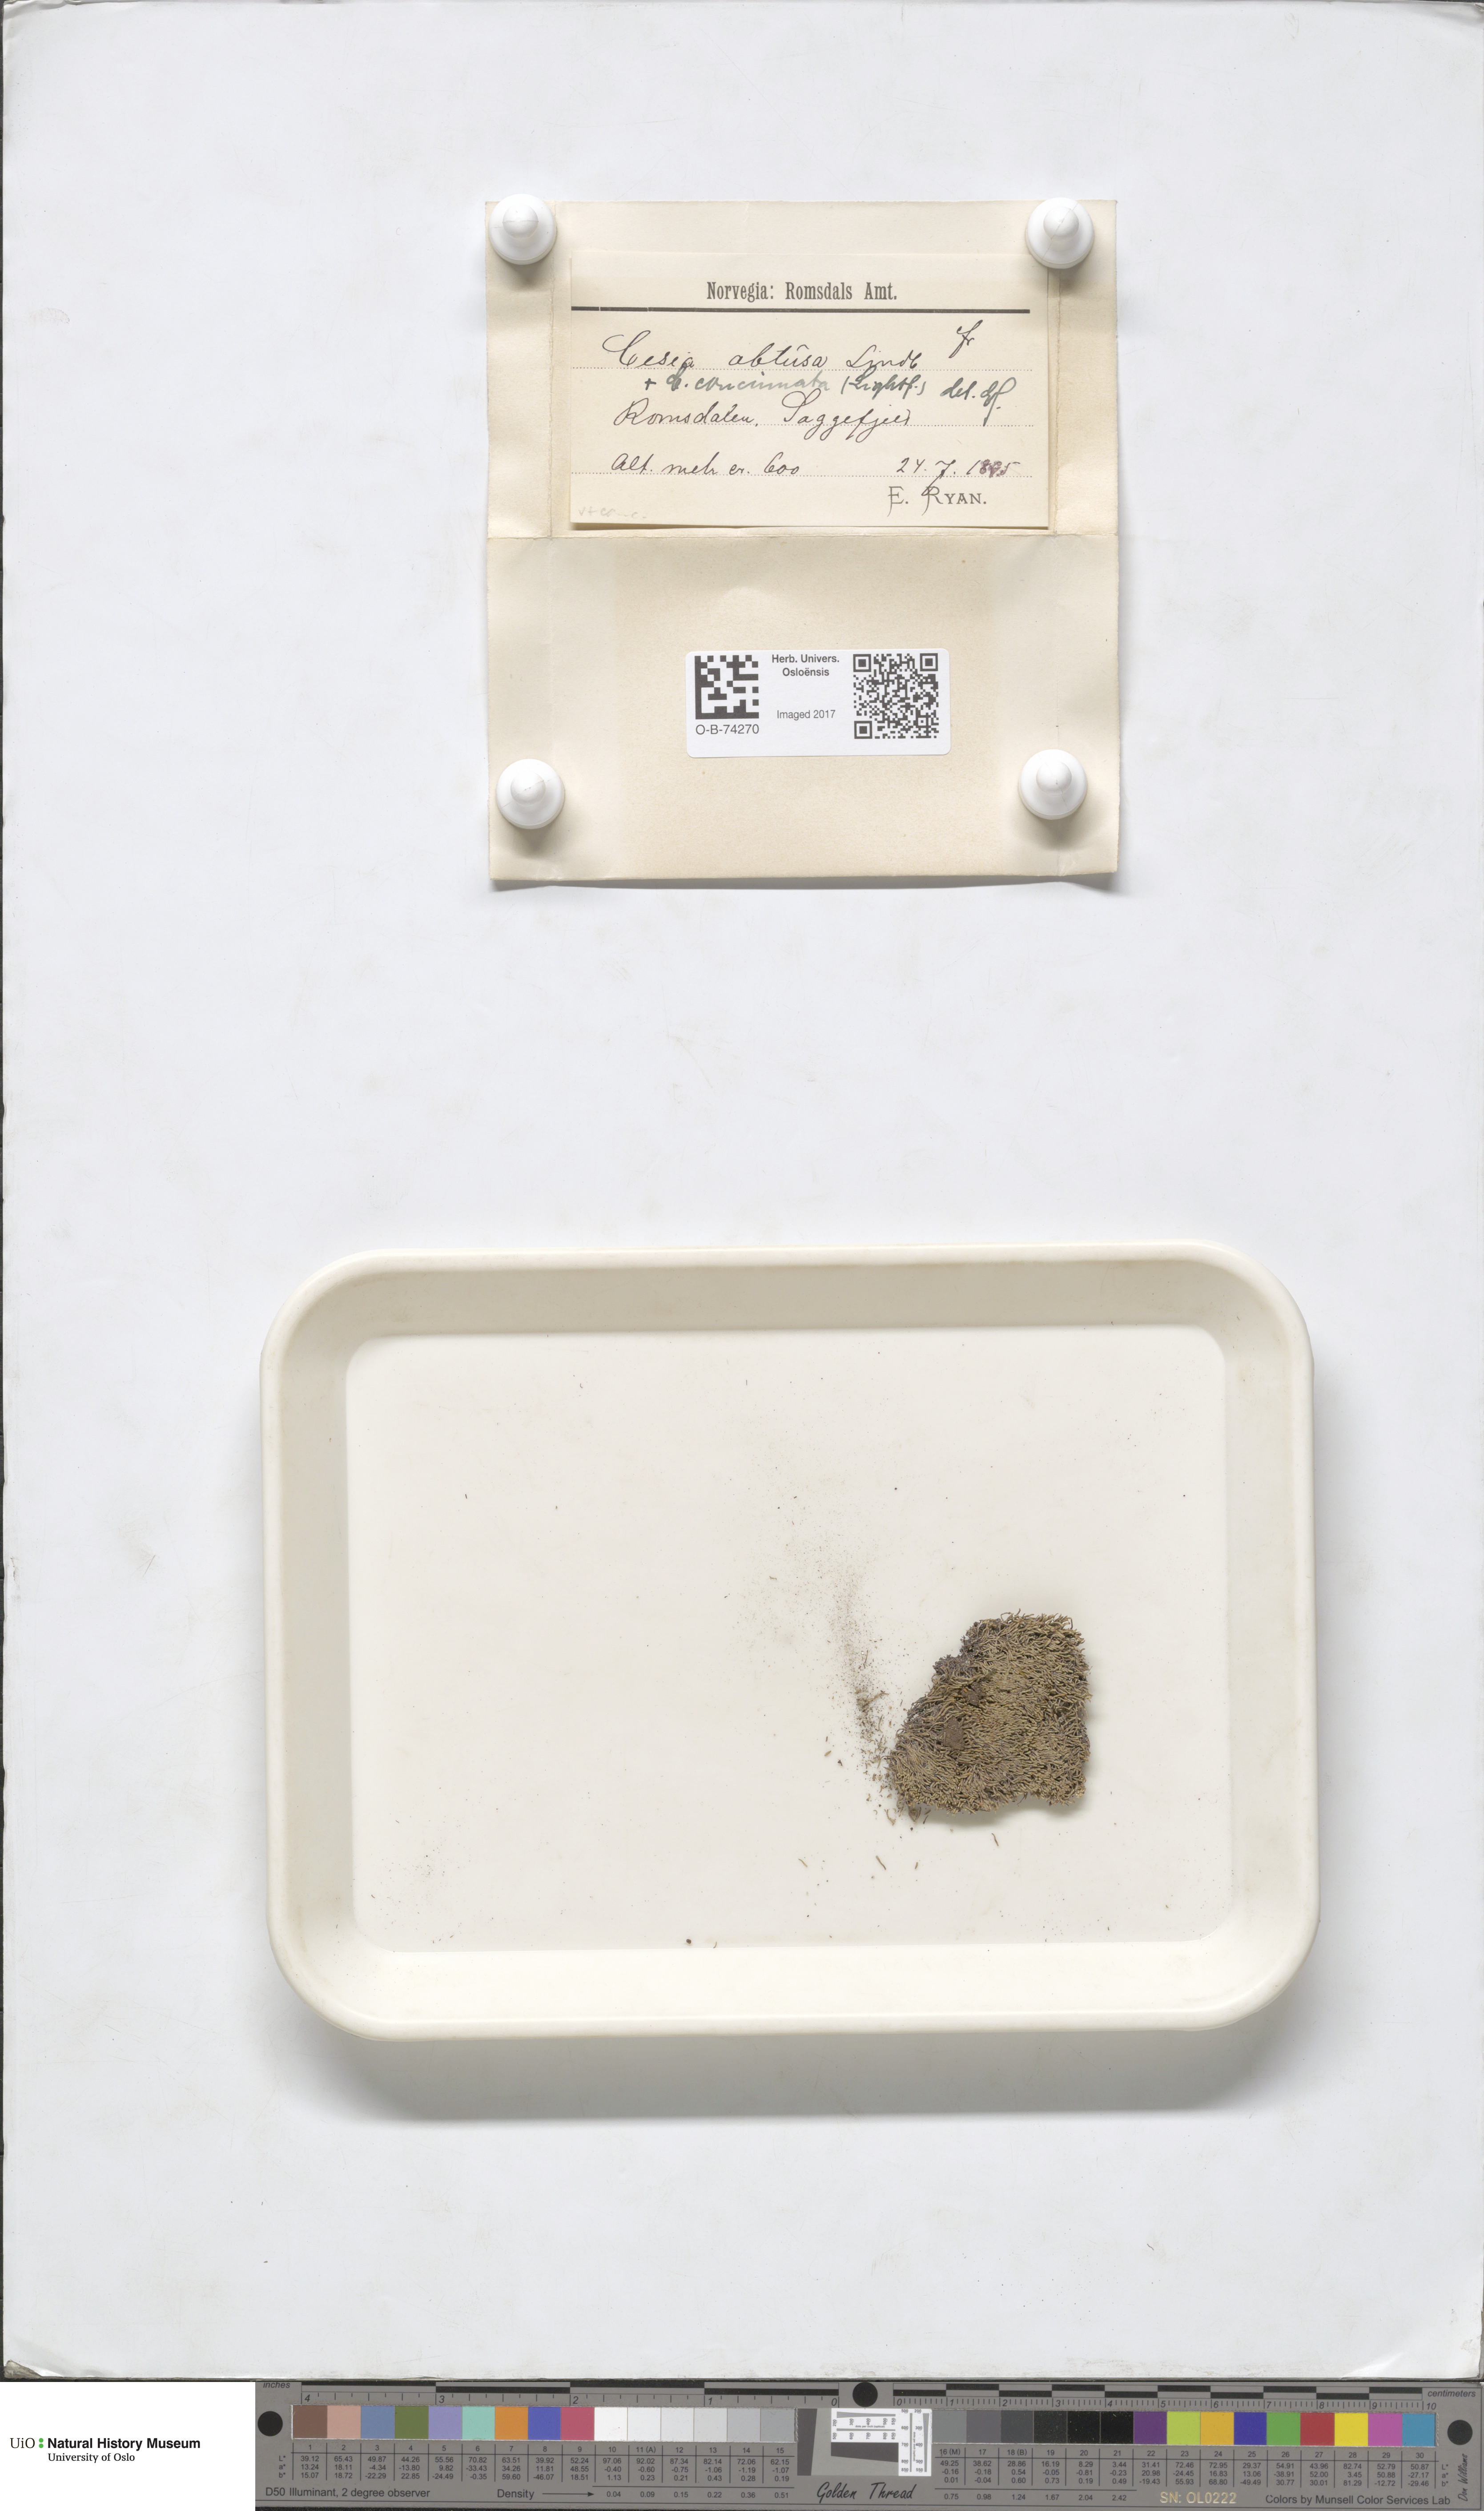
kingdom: Plantae
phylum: Marchantiophyta
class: Jungermanniopsida
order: Jungermanniales
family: Gymnomitriaceae
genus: Gymnomitrion
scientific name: Gymnomitrion obtusum
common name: White frostwort
